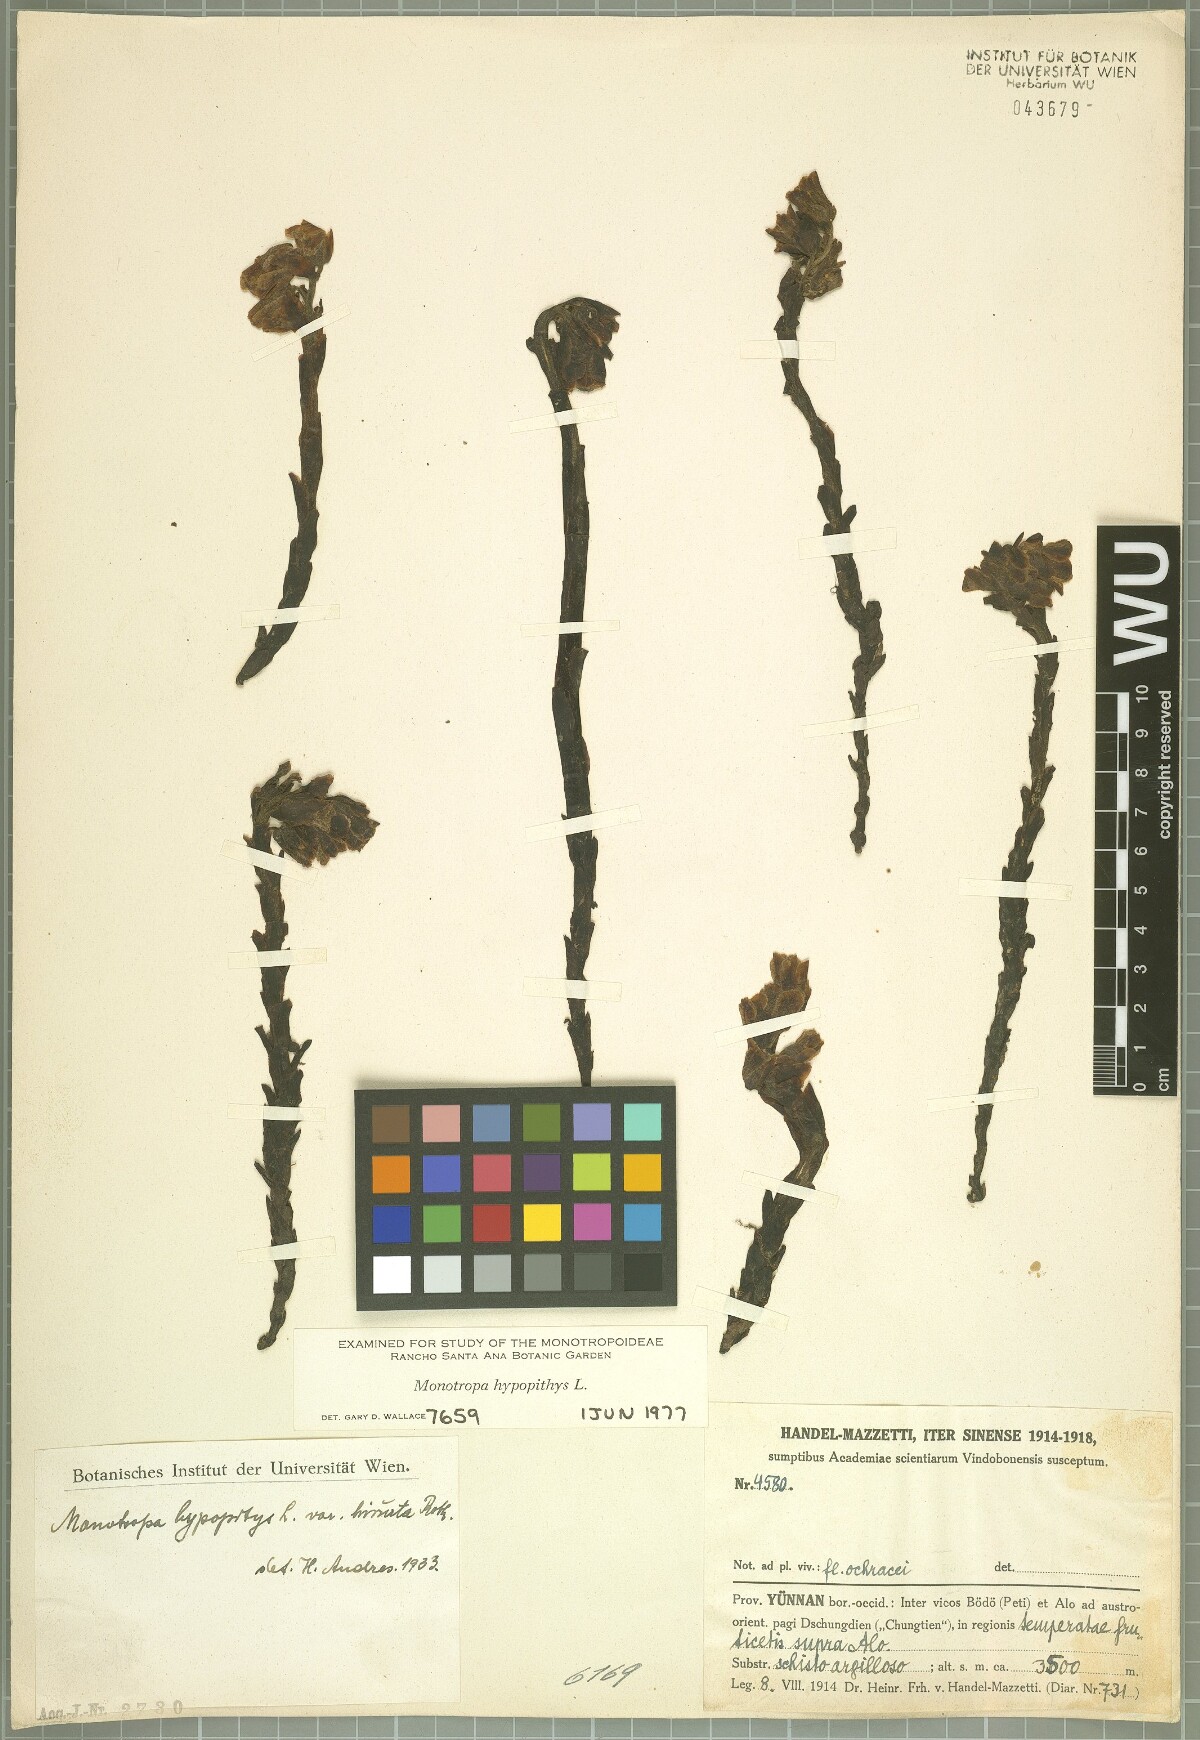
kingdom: Plantae
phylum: Tracheophyta
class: Magnoliopsida
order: Ericales
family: Ericaceae
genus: Hypopitys
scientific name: Hypopitys monotropa
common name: Yellow bird's-nest
